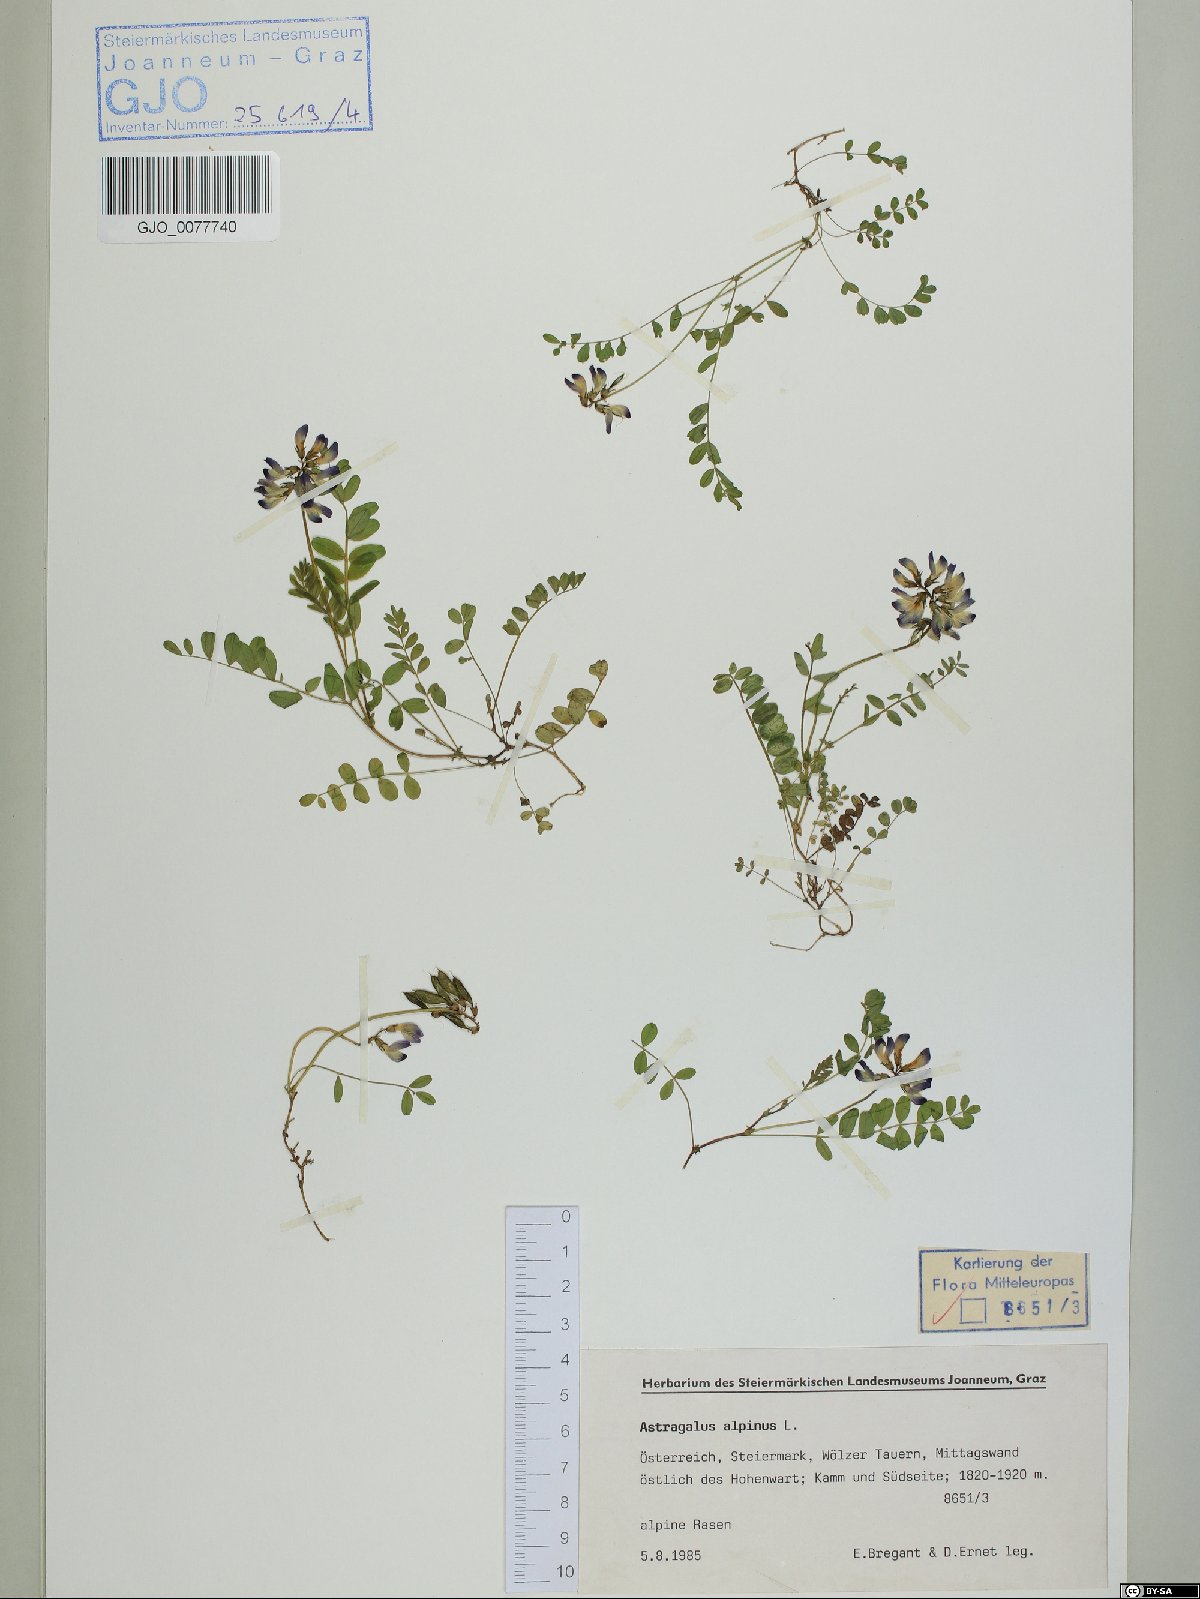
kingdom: Plantae
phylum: Tracheophyta
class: Magnoliopsida
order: Fabales
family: Fabaceae
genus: Astragalus
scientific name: Astragalus alpinus
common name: Alpine milk-vetch
